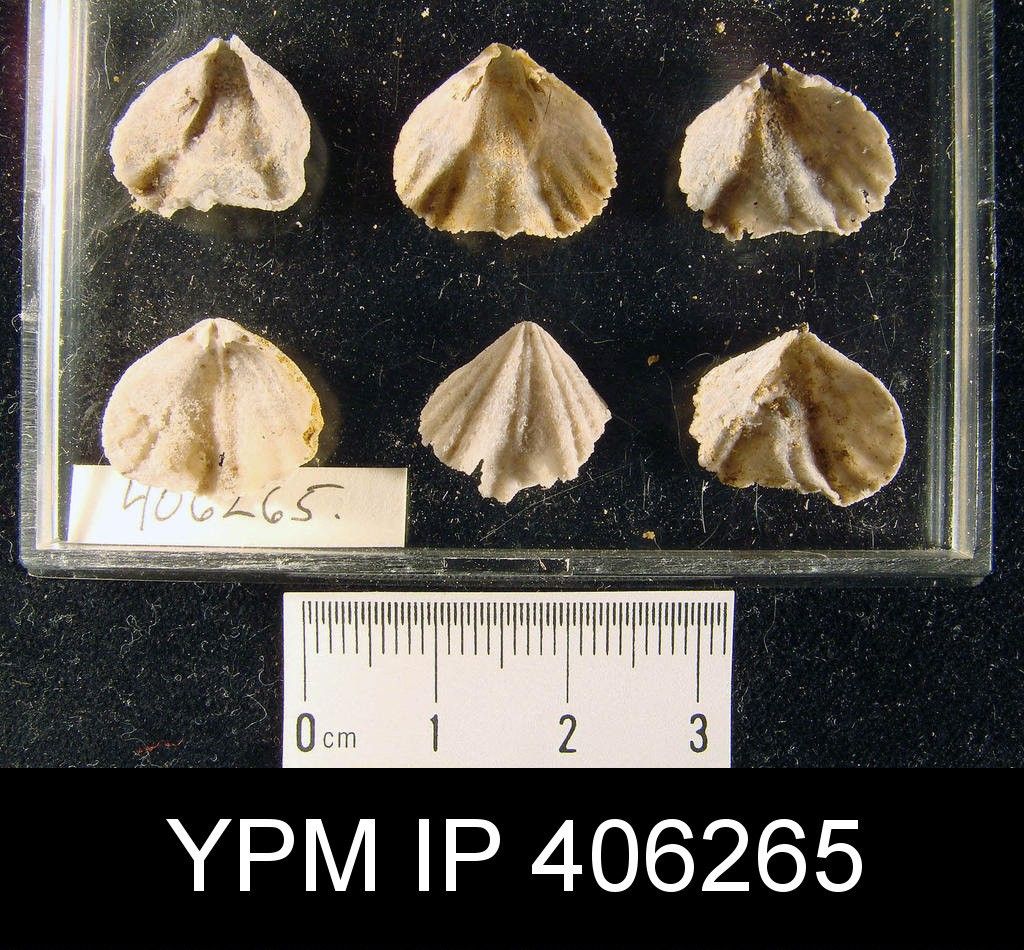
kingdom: Animalia
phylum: Brachiopoda
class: Rhynchonellata
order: Rhynchonellida
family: Rhynchotrematidae
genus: Rhynchotrema
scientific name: Rhynchotrema Atrypa dentata
